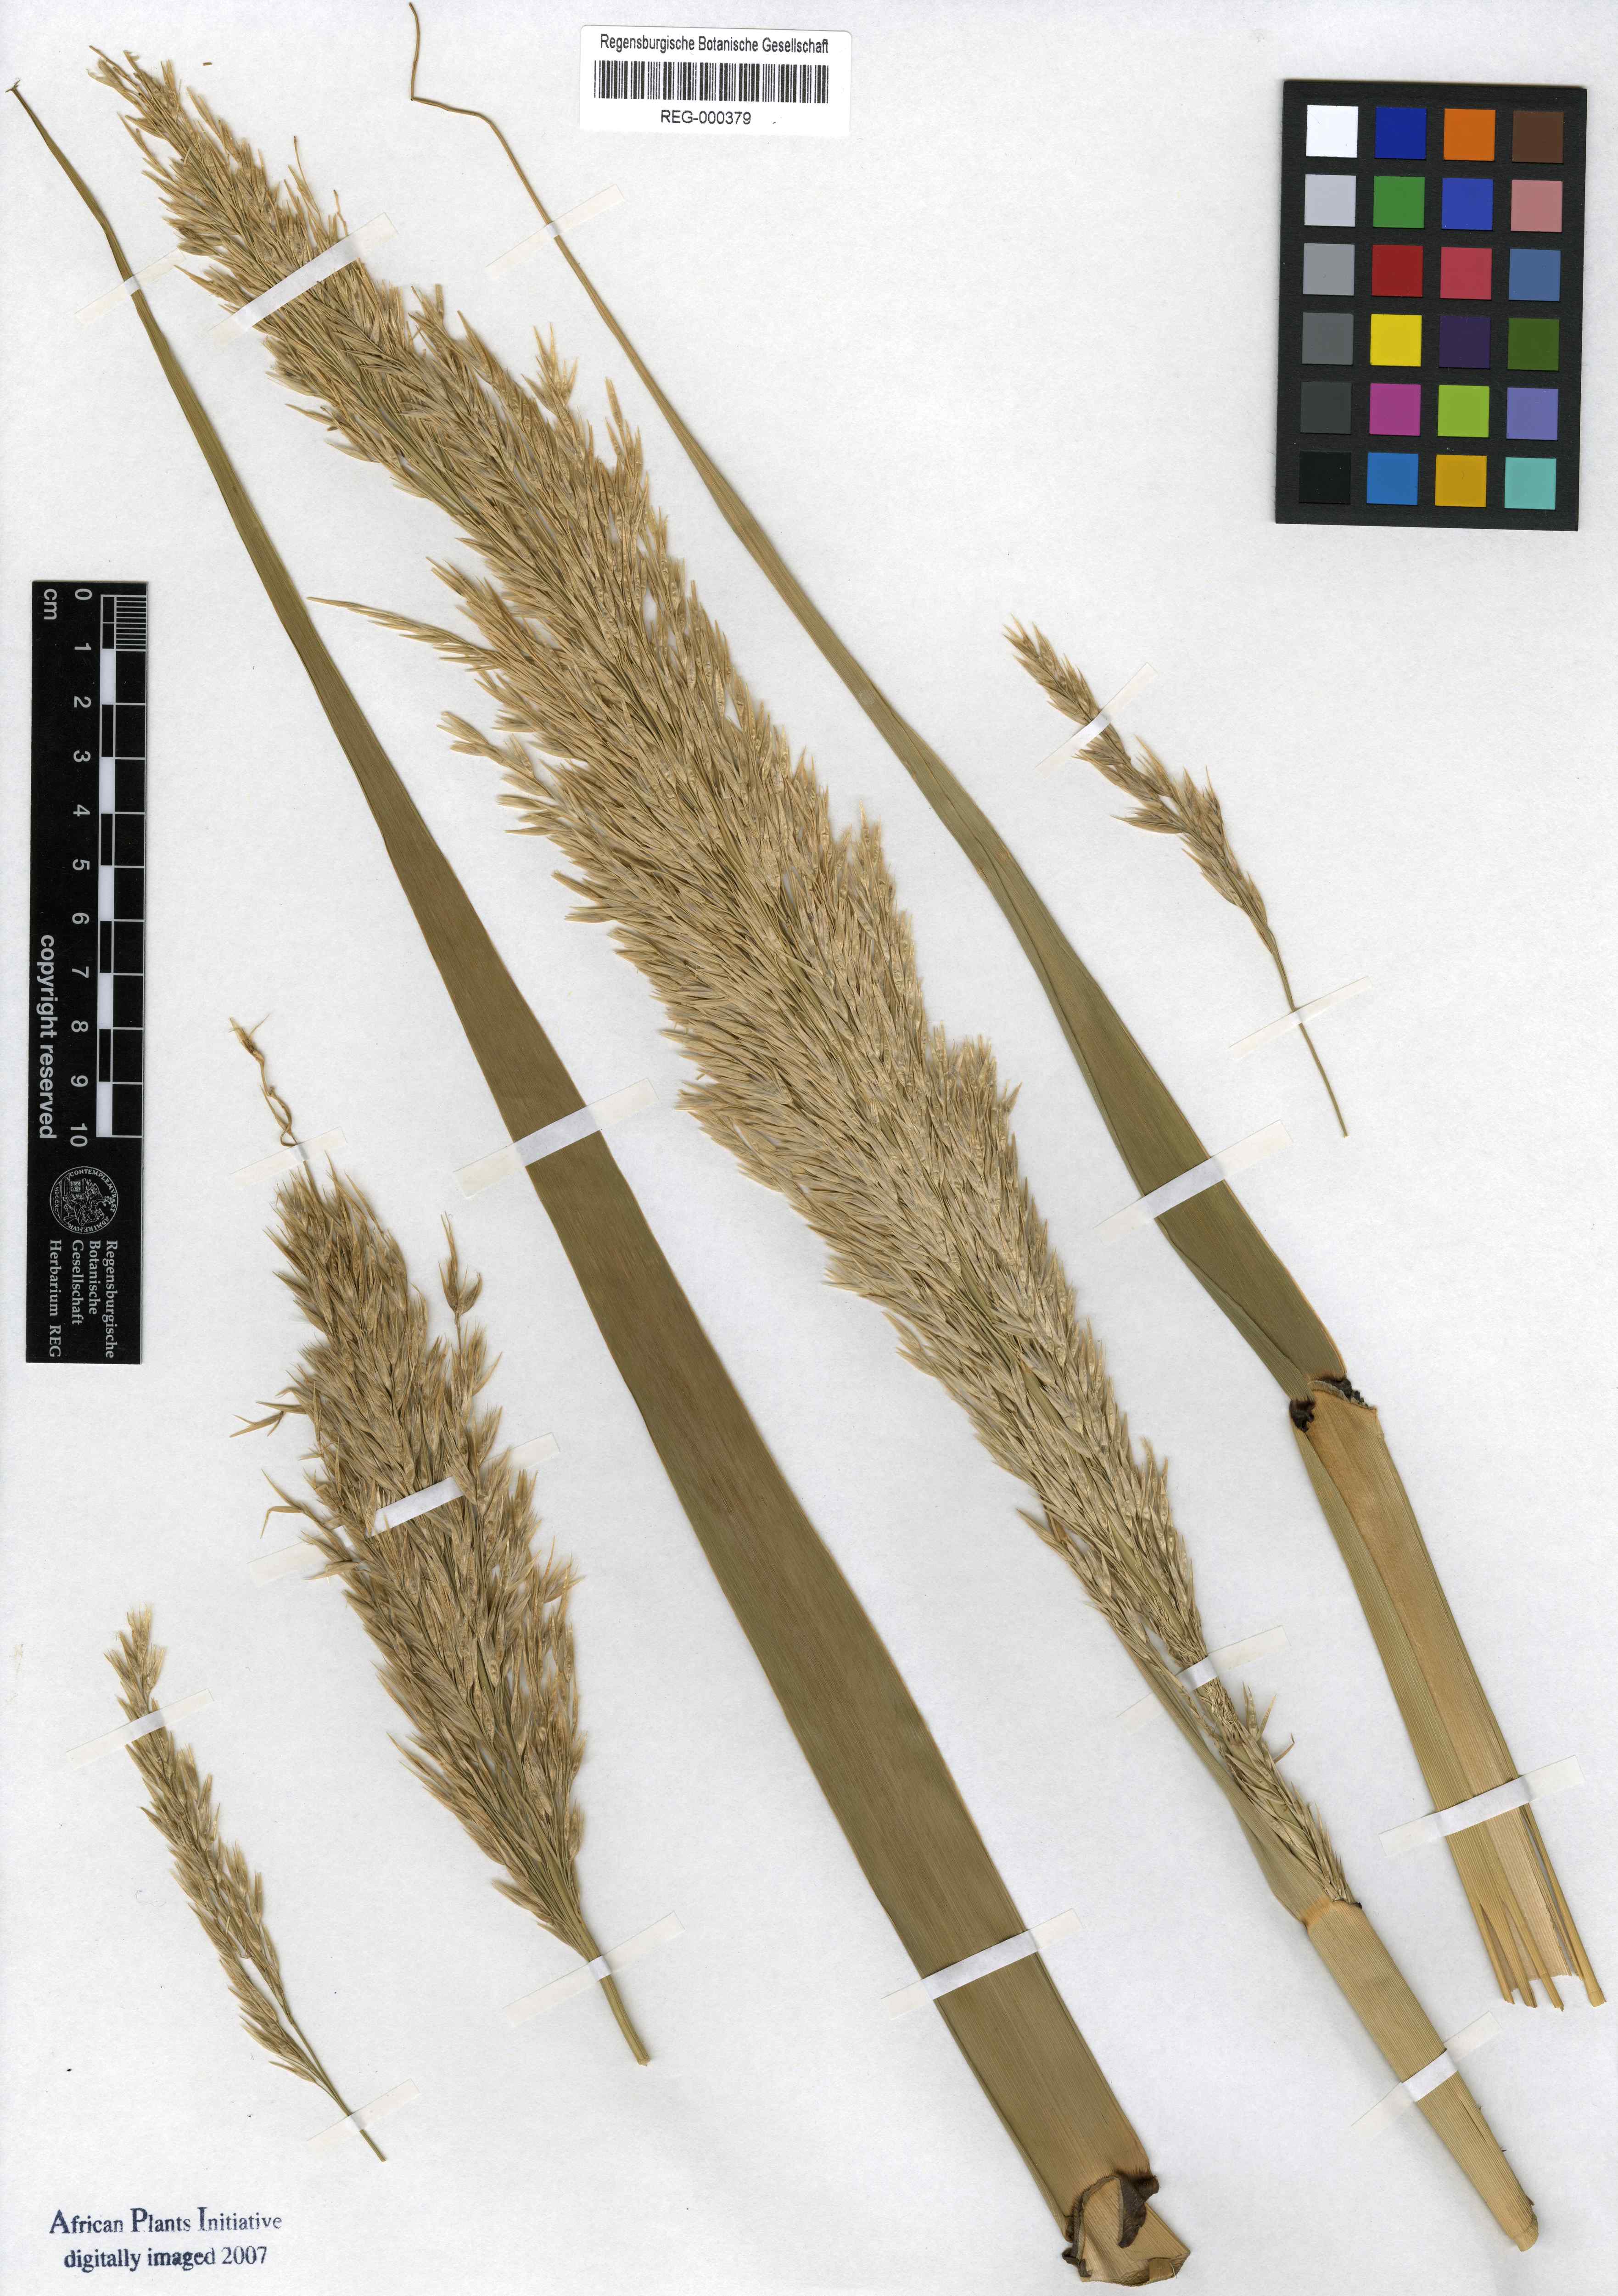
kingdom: Plantae
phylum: Tracheophyta
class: Liliopsida
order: Zingiberales
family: Marantaceae
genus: Donax
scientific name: Donax
